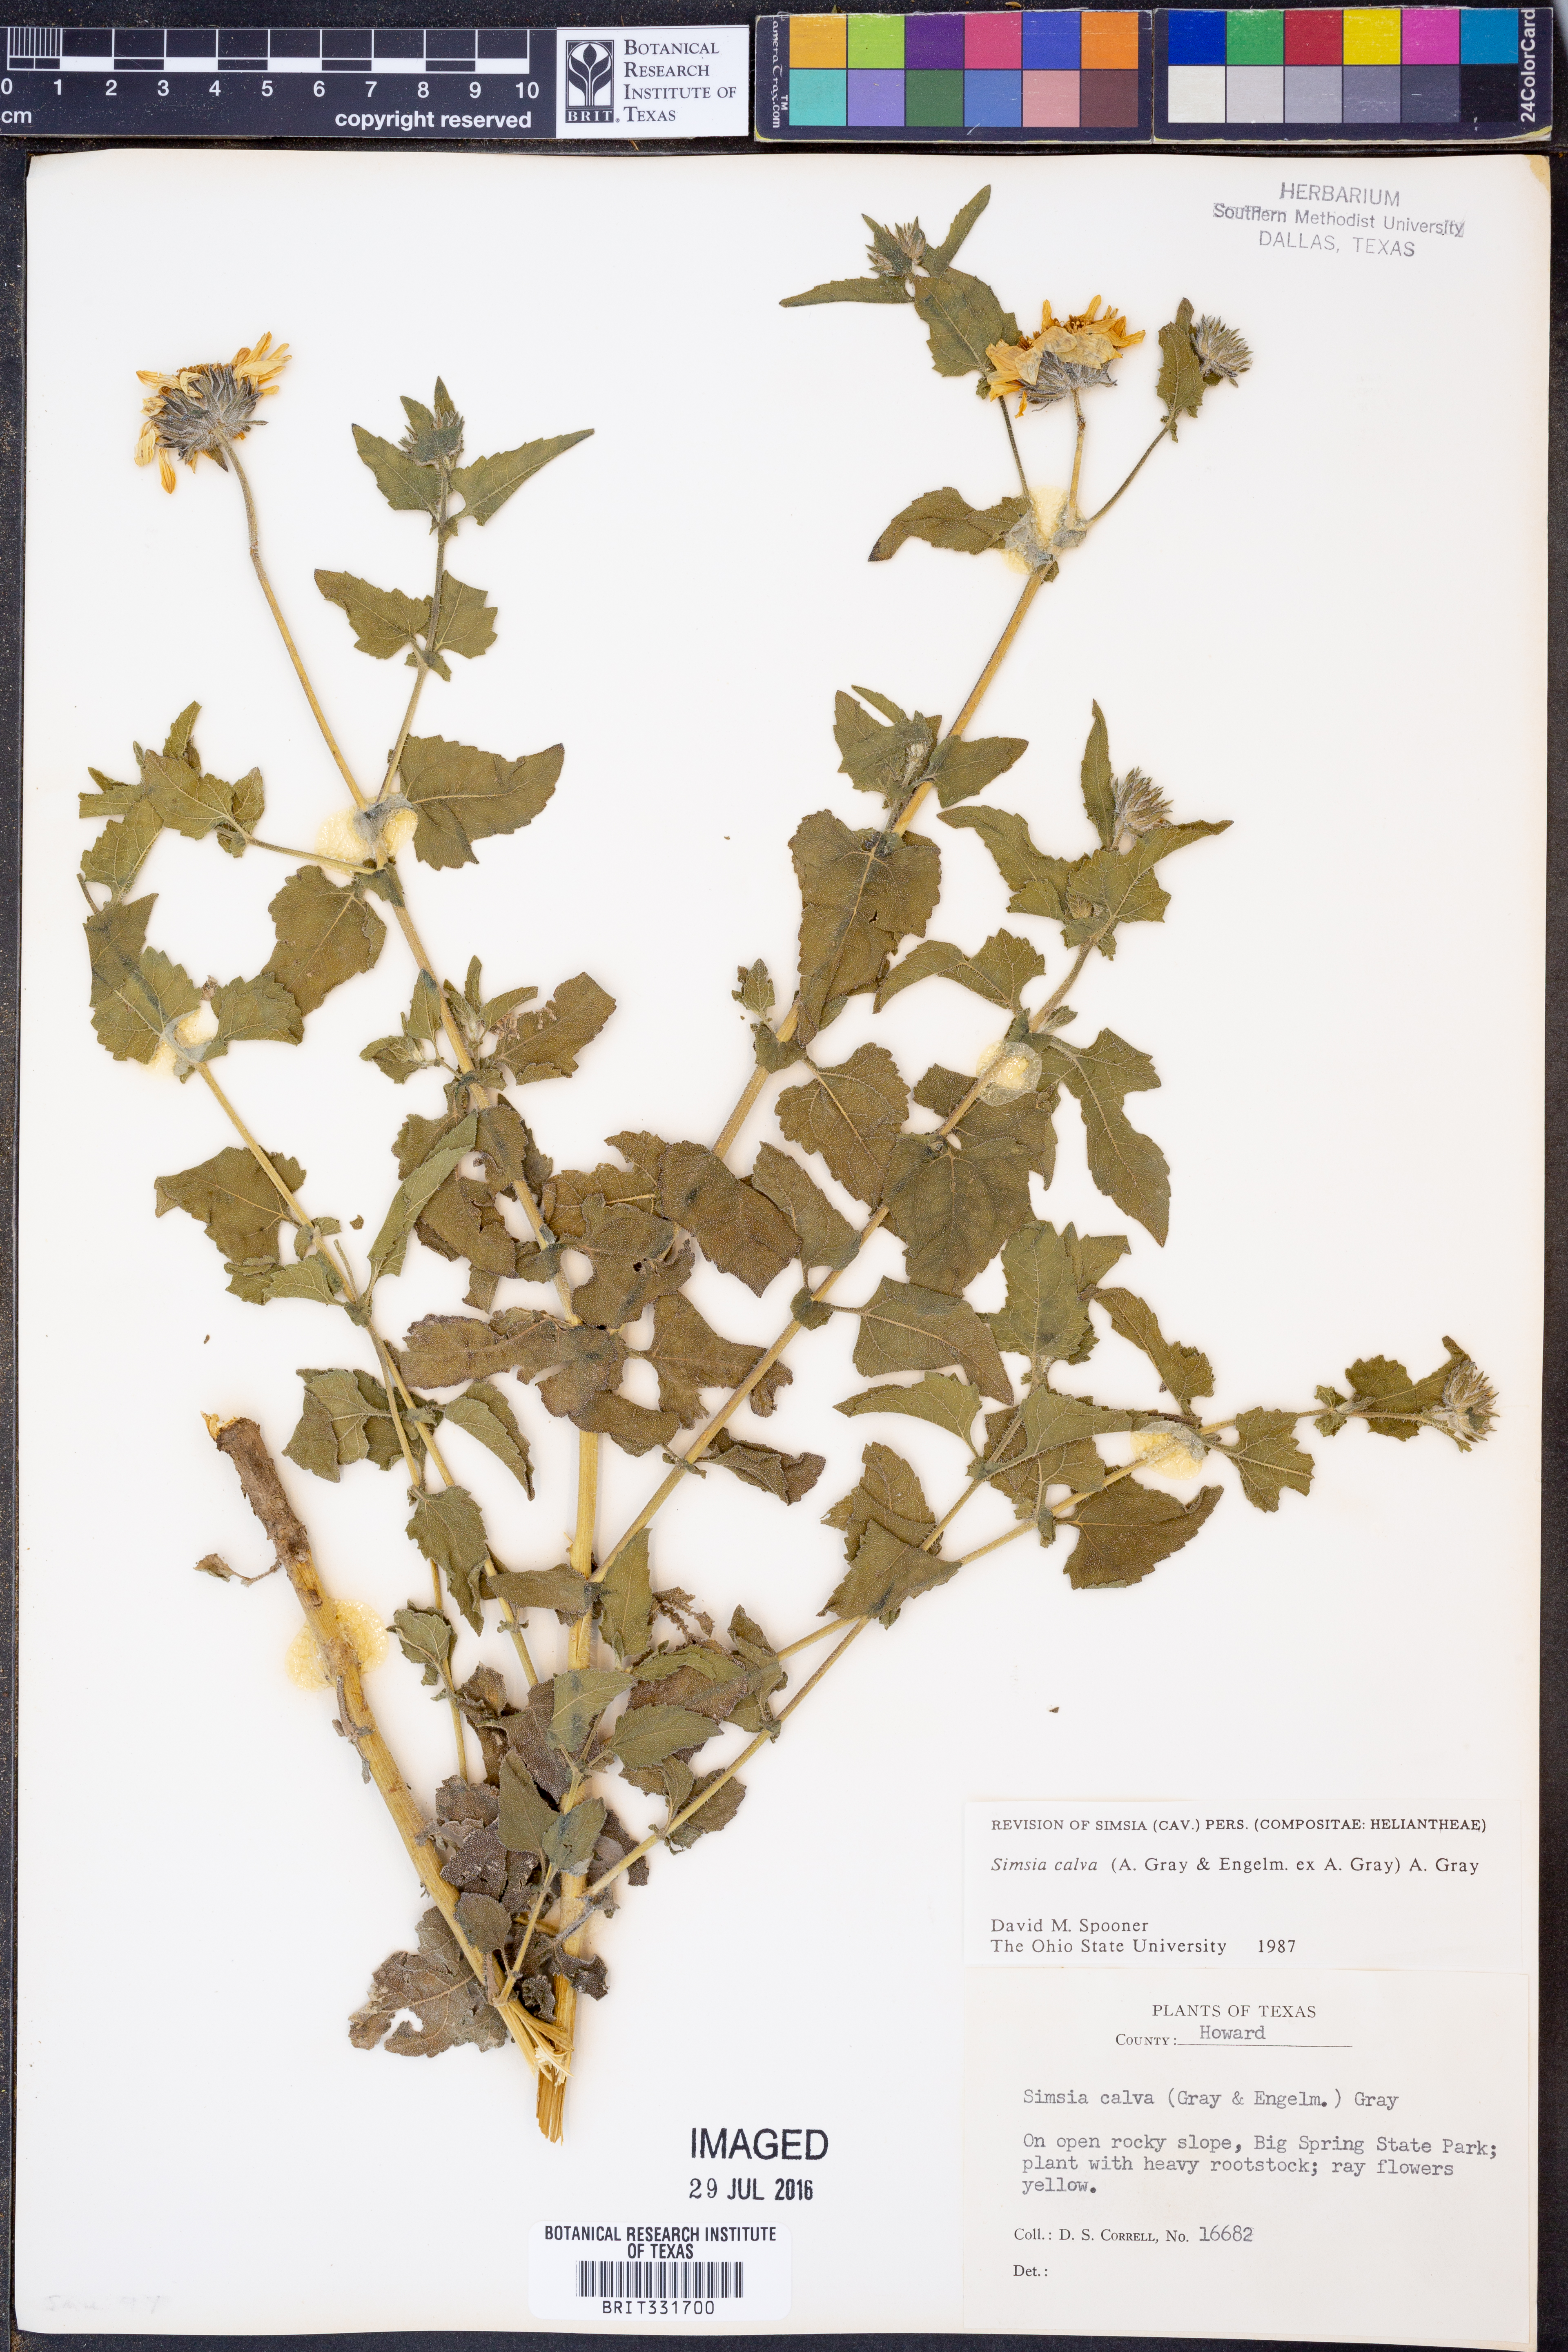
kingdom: Plantae
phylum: Tracheophyta
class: Magnoliopsida
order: Asterales
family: Asteraceae
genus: Simsia
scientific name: Simsia calva
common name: Awnless bush-sunflower
